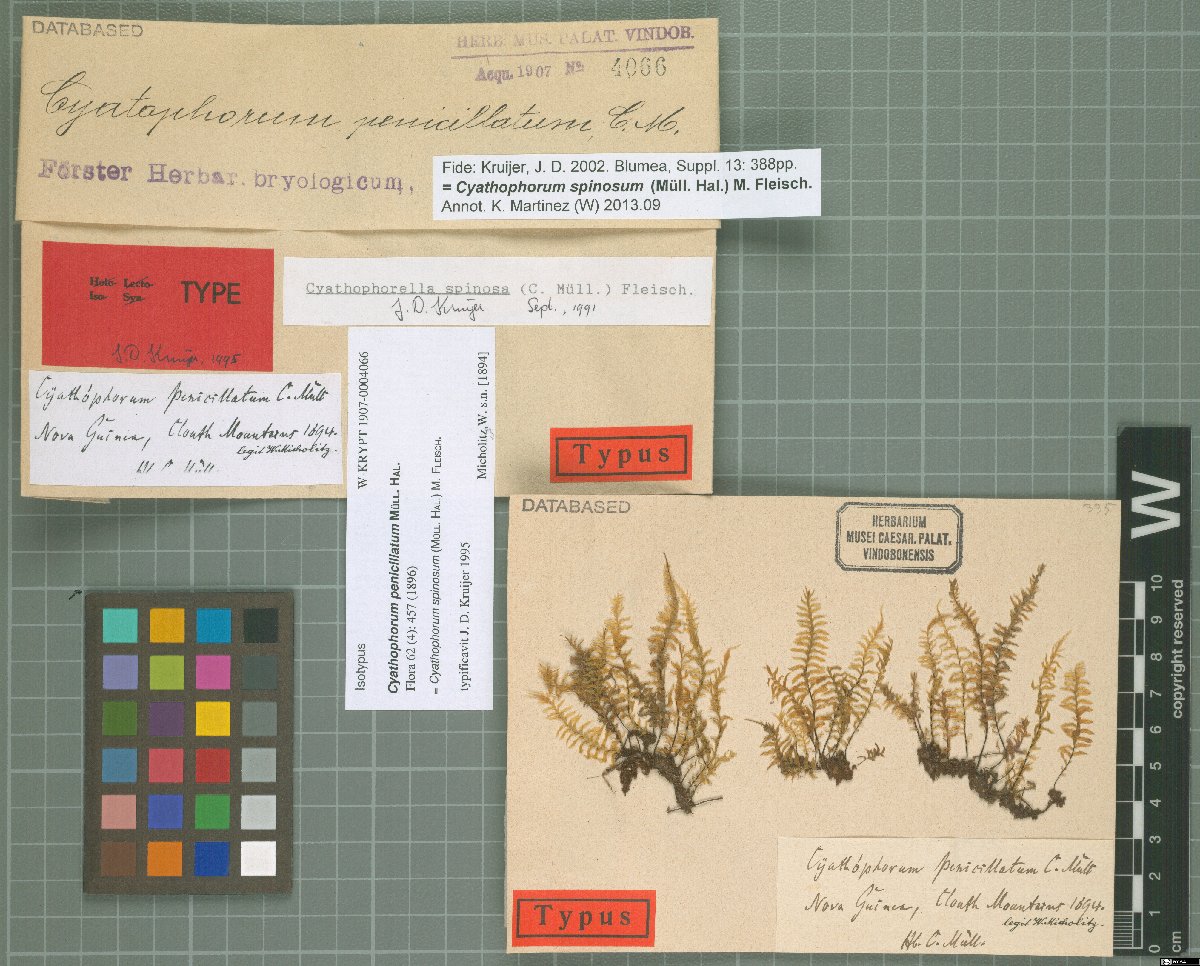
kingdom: Plantae
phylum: Bryophyta
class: Bryopsida
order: Hypopterygiales
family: Hypopterygiaceae
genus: Cyathophorum
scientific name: Cyathophorum spinosum
